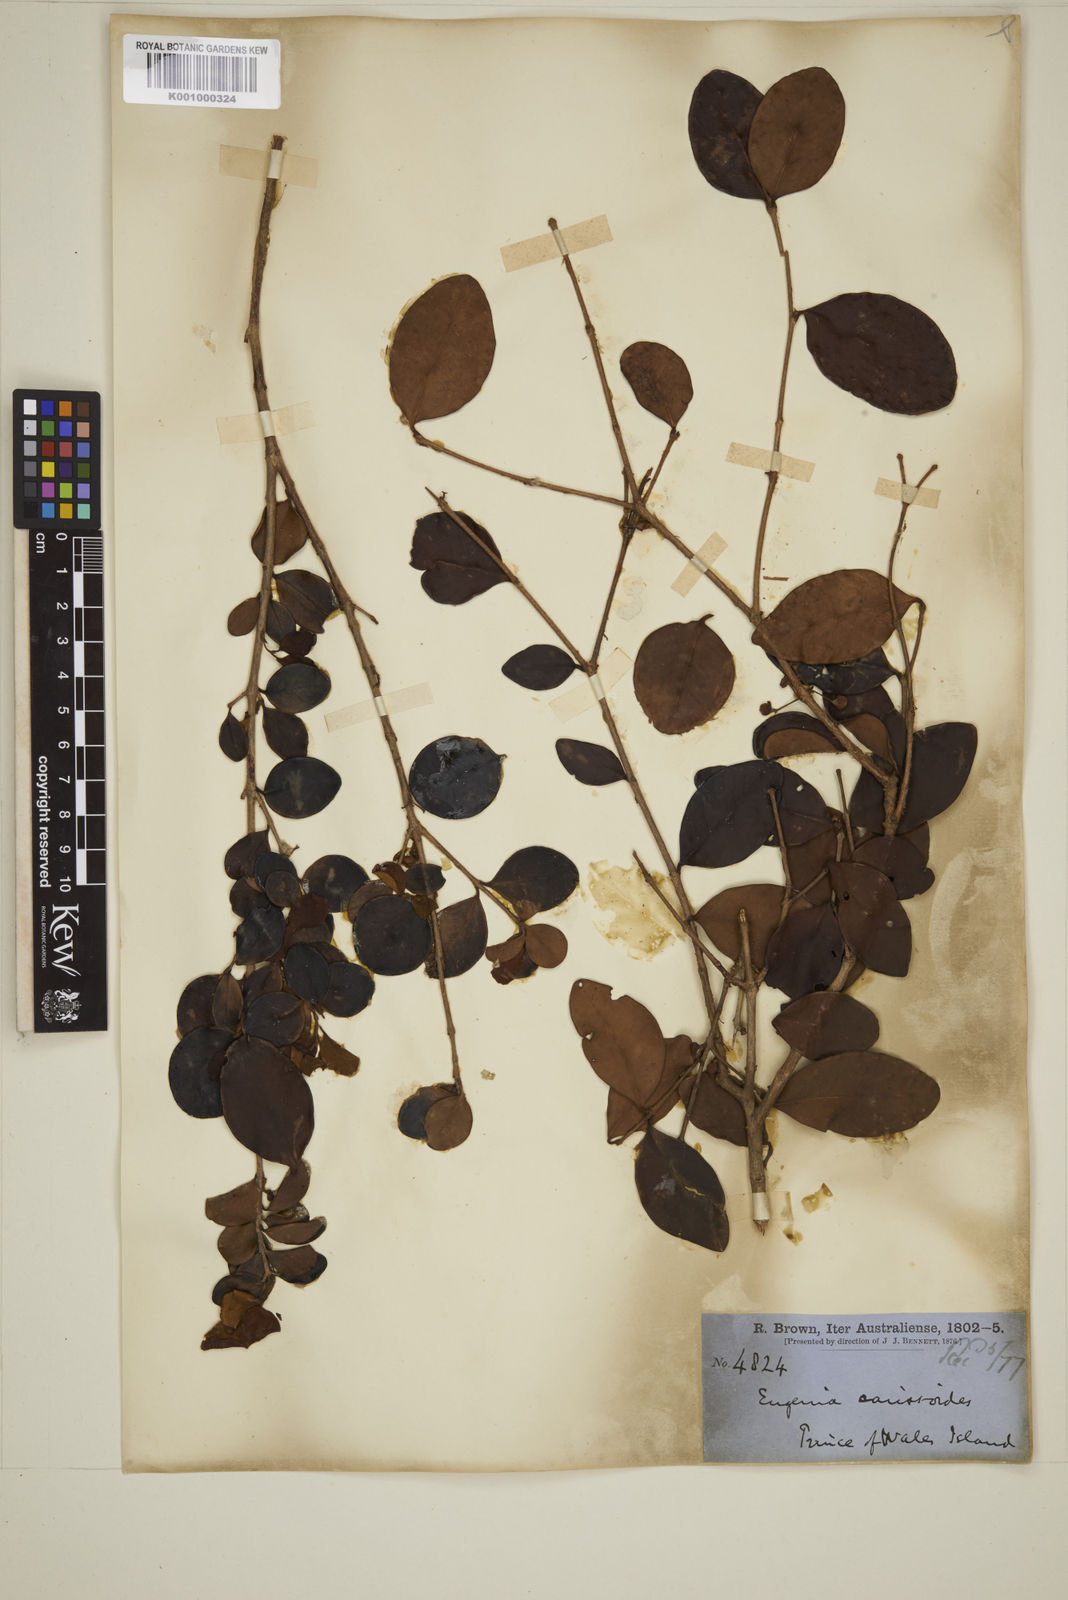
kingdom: Plantae
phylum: Tracheophyta
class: Magnoliopsida
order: Myrtales
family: Myrtaceae
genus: Eugenia
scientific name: Eugenia reinwardtiana
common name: Cedar bay-cherry
